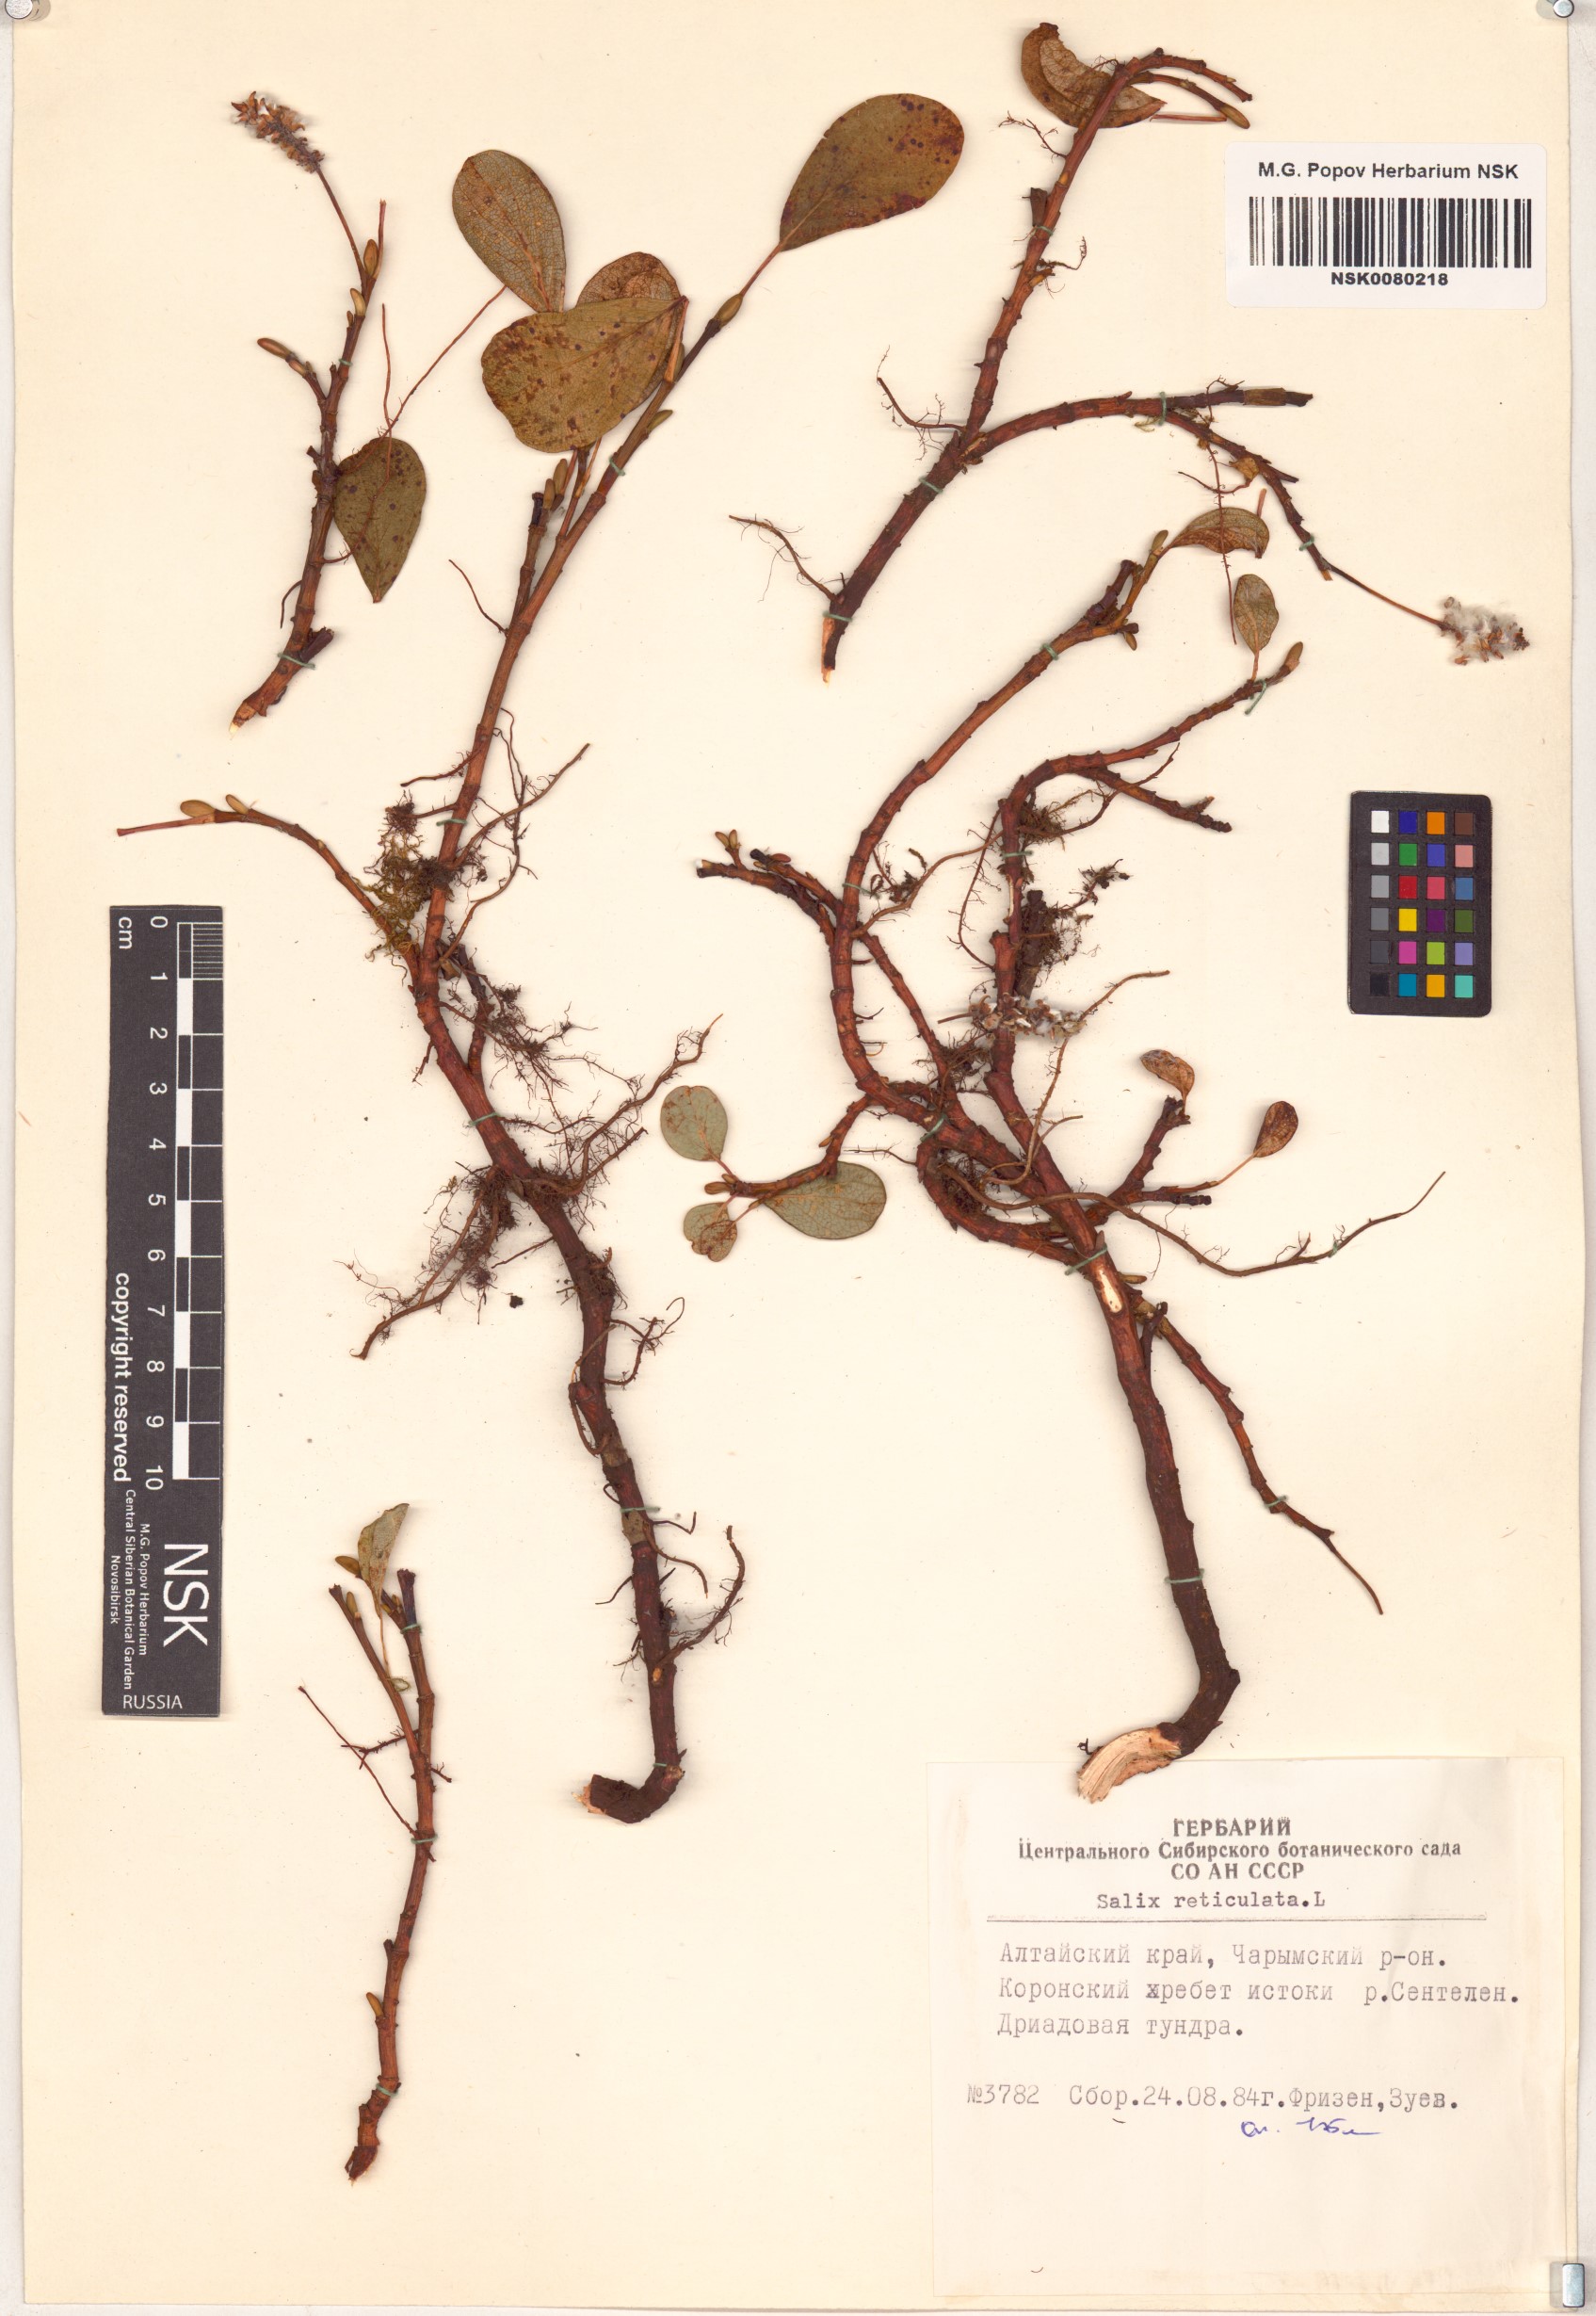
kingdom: Plantae
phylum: Tracheophyta
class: Magnoliopsida
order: Malpighiales
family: Salicaceae
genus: Salix
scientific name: Salix reticulata
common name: Net-leaved willow
